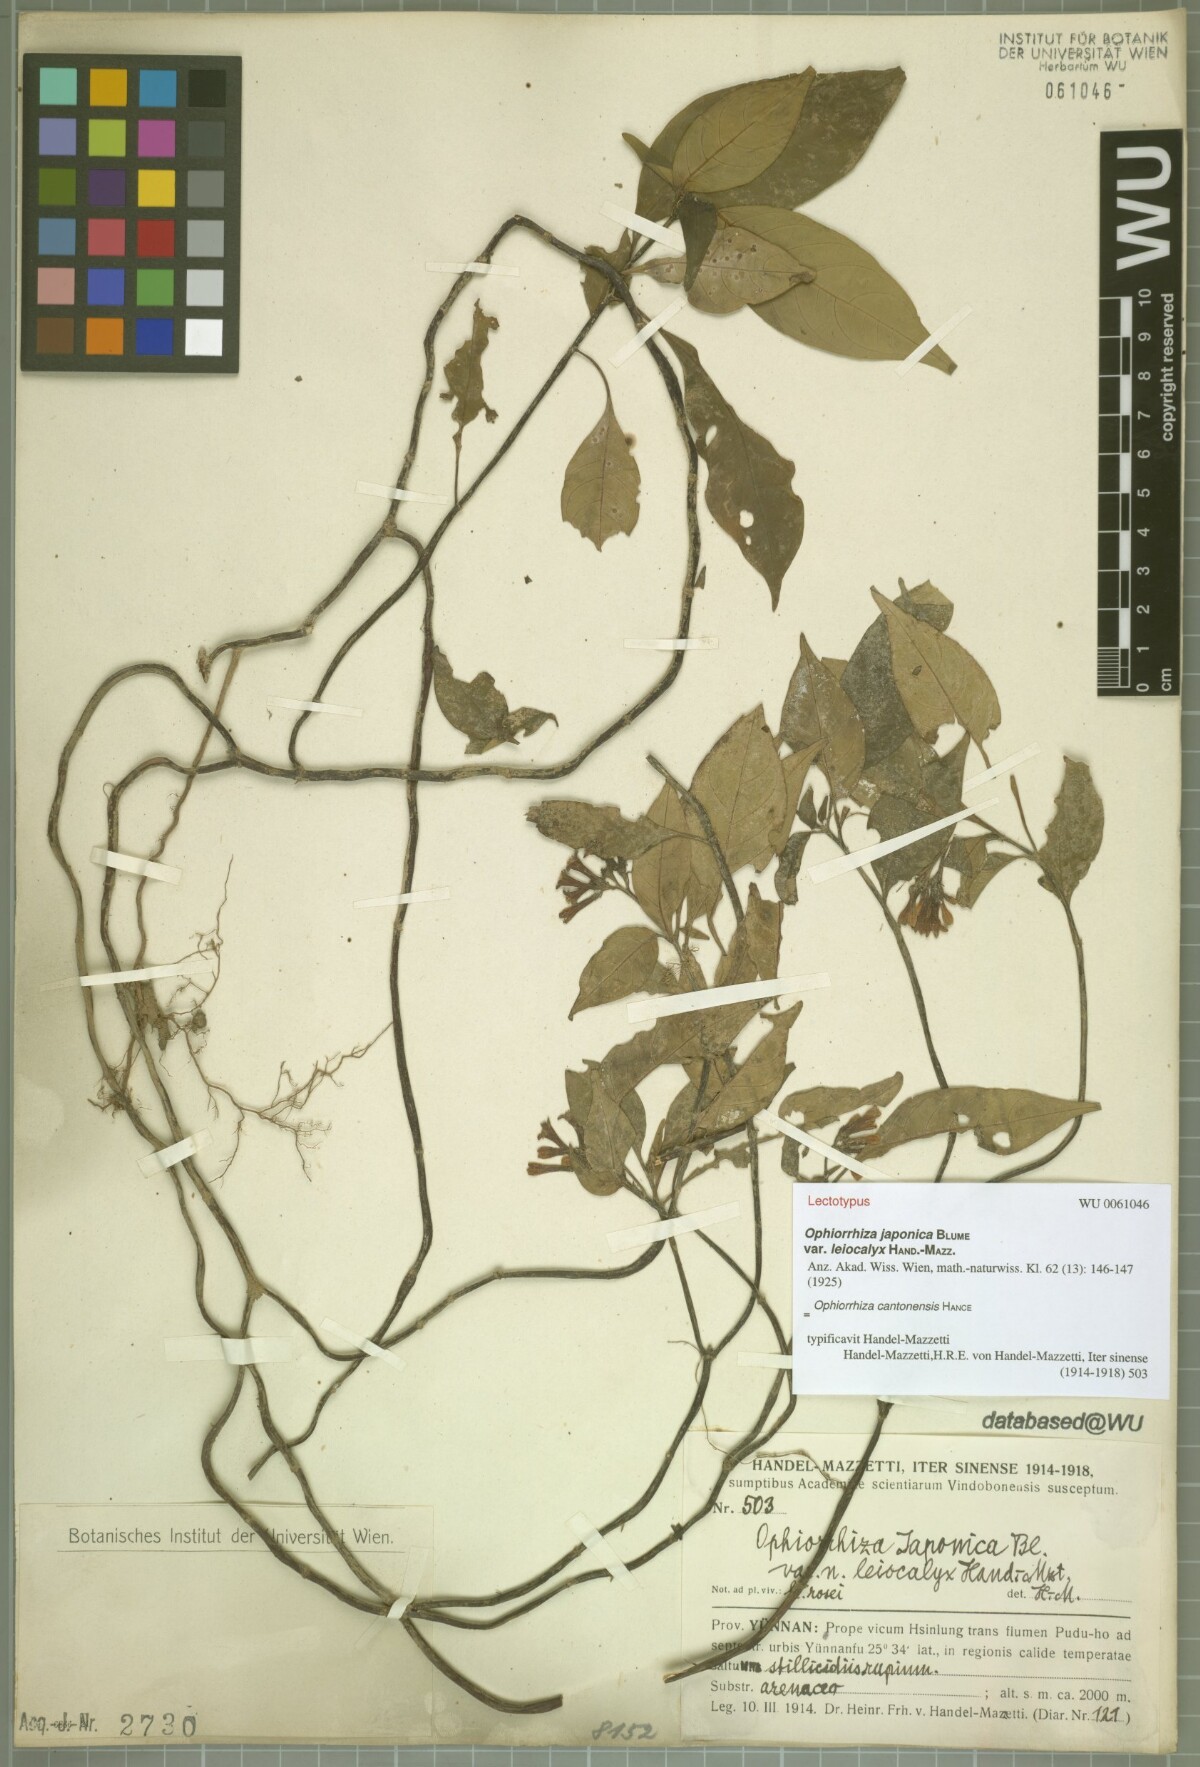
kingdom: Plantae
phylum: Tracheophyta
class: Magnoliopsida
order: Gentianales
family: Rubiaceae
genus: Ophiorrhiza
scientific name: Ophiorrhiza japonica
